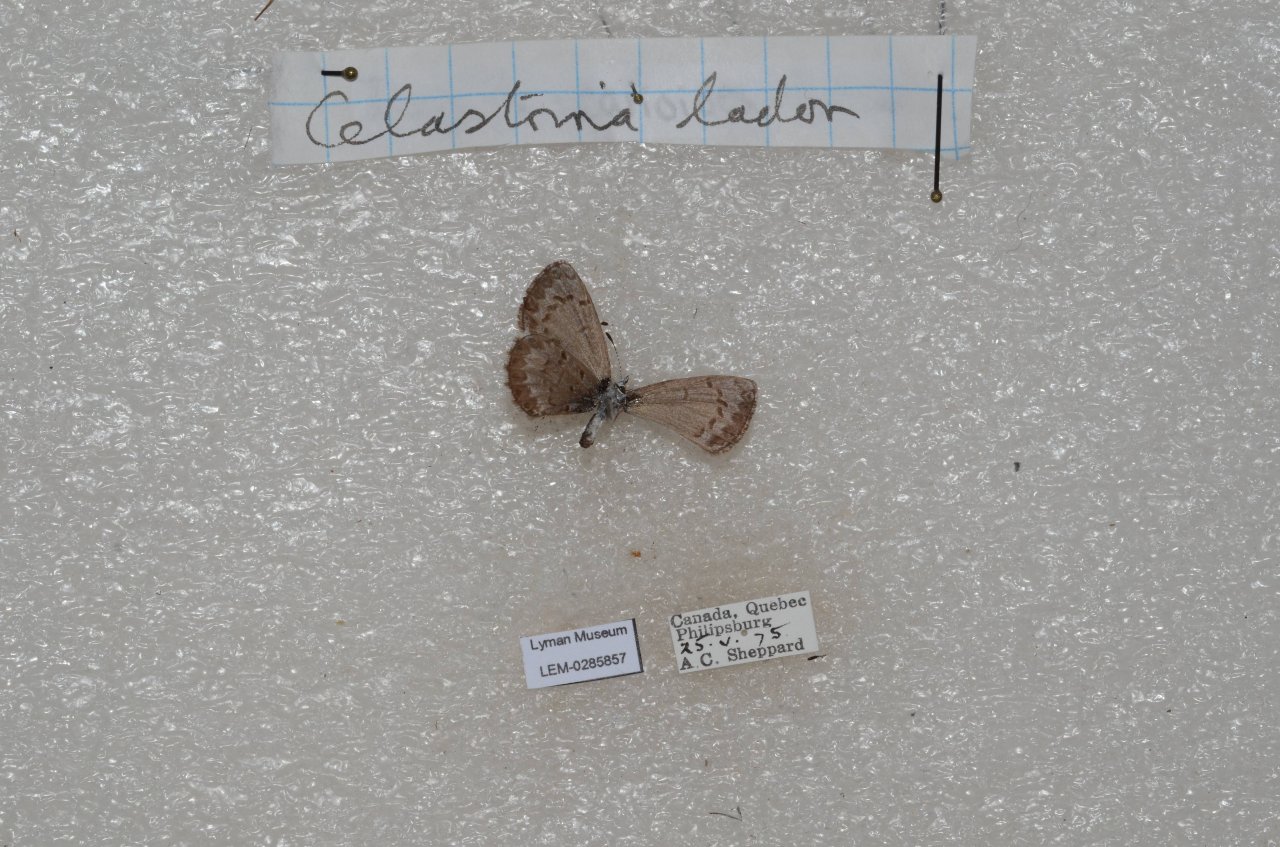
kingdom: Animalia
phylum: Arthropoda
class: Insecta
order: Lepidoptera
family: Lycaenidae
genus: Celastrina
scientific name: Celastrina lucia
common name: Northern Spring Azure
